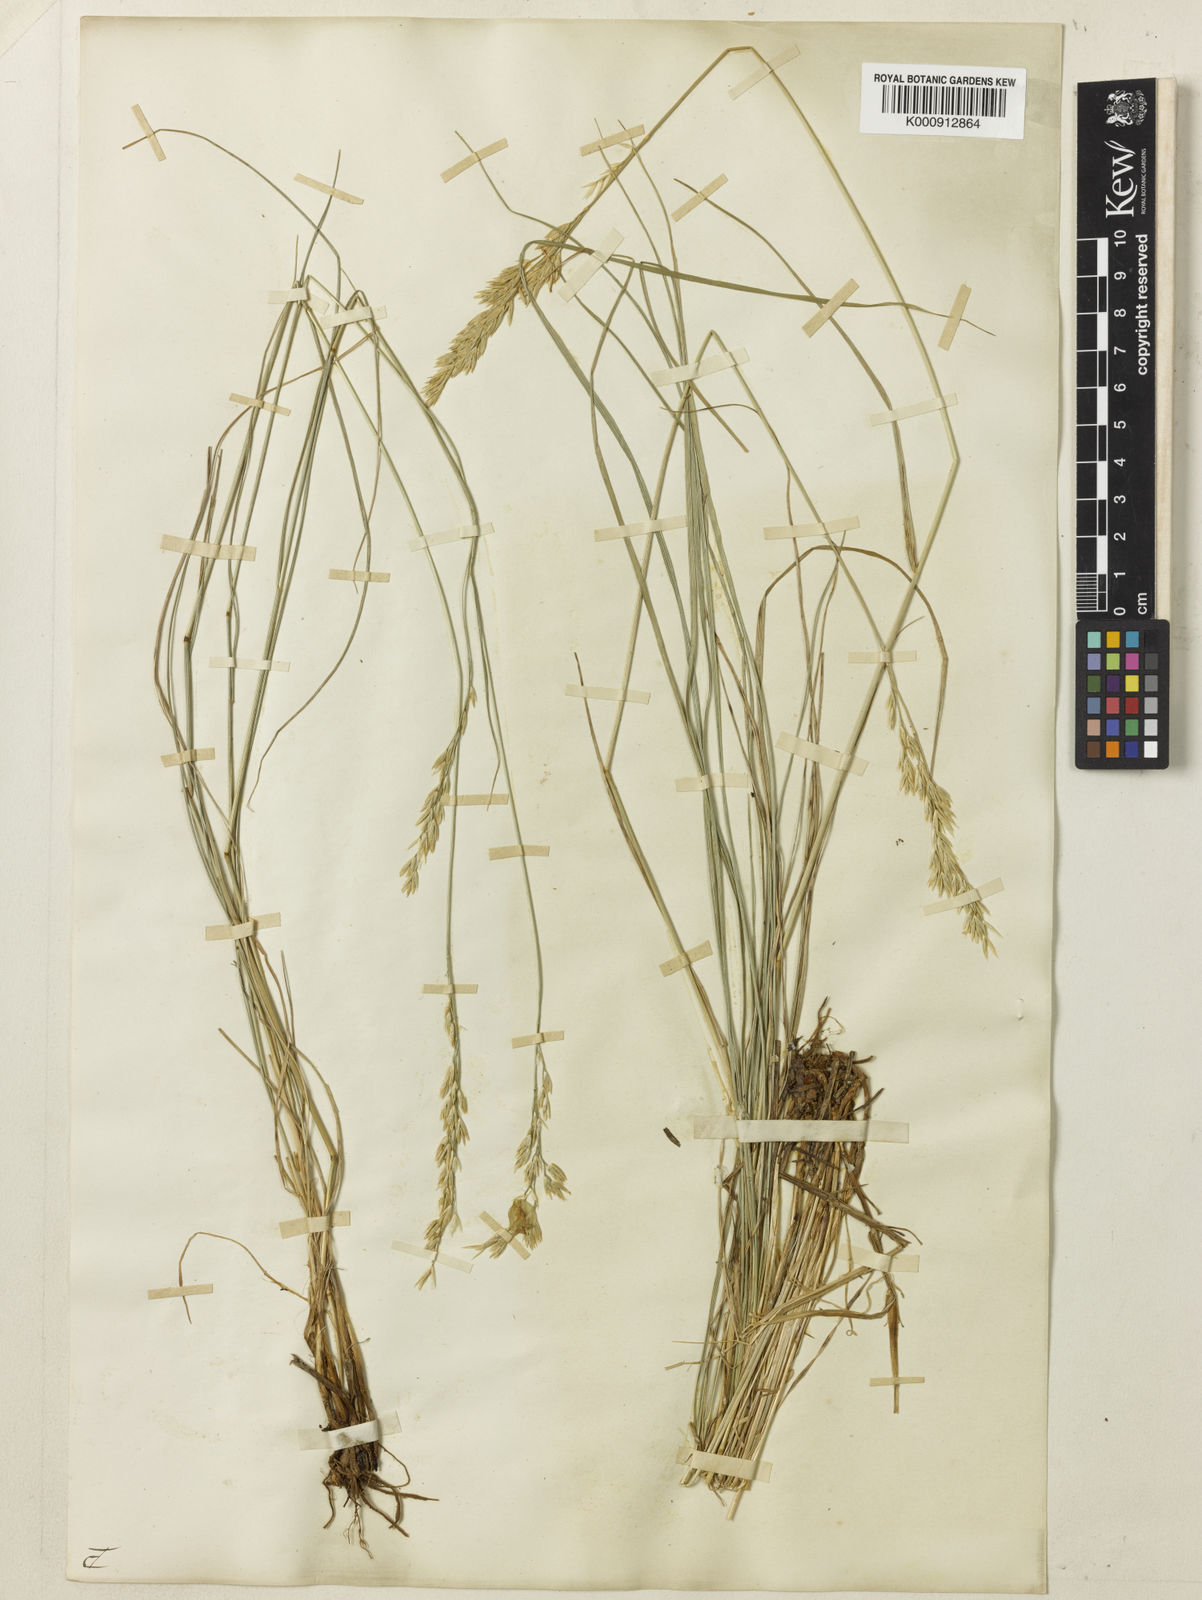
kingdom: Plantae
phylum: Tracheophyta
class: Liliopsida
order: Poales
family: Poaceae
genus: Festuca
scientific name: Festuca
